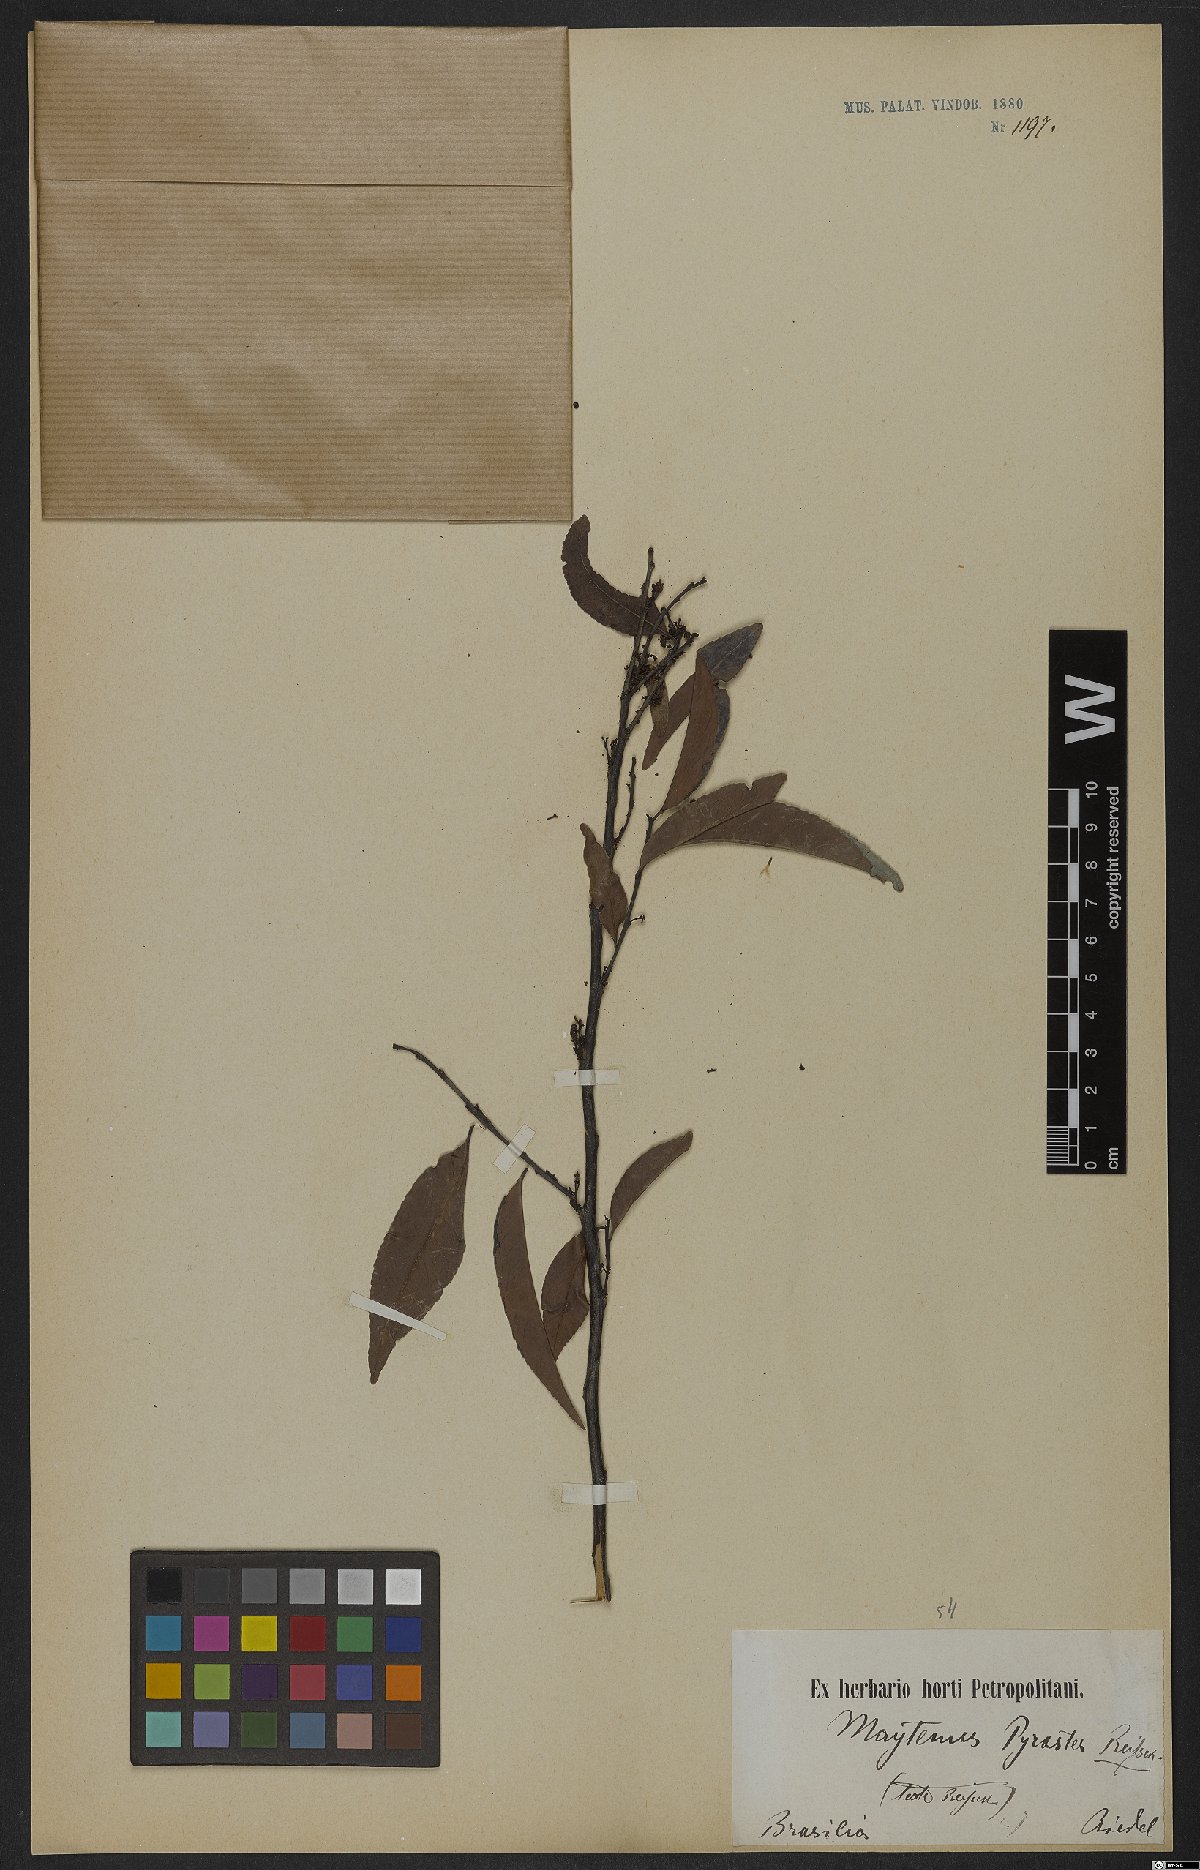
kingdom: Plantae
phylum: Tracheophyta
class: Magnoliopsida
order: Celastrales
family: Celastraceae
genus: Maytenus
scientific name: Maytenus pyraster
